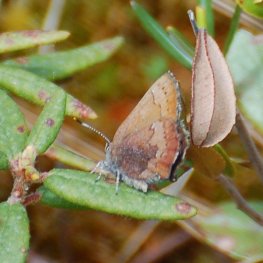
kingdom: Animalia
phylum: Arthropoda
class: Insecta
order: Lepidoptera
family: Lycaenidae
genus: Incisalia
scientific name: Incisalia irioides
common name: Brown Elfin
